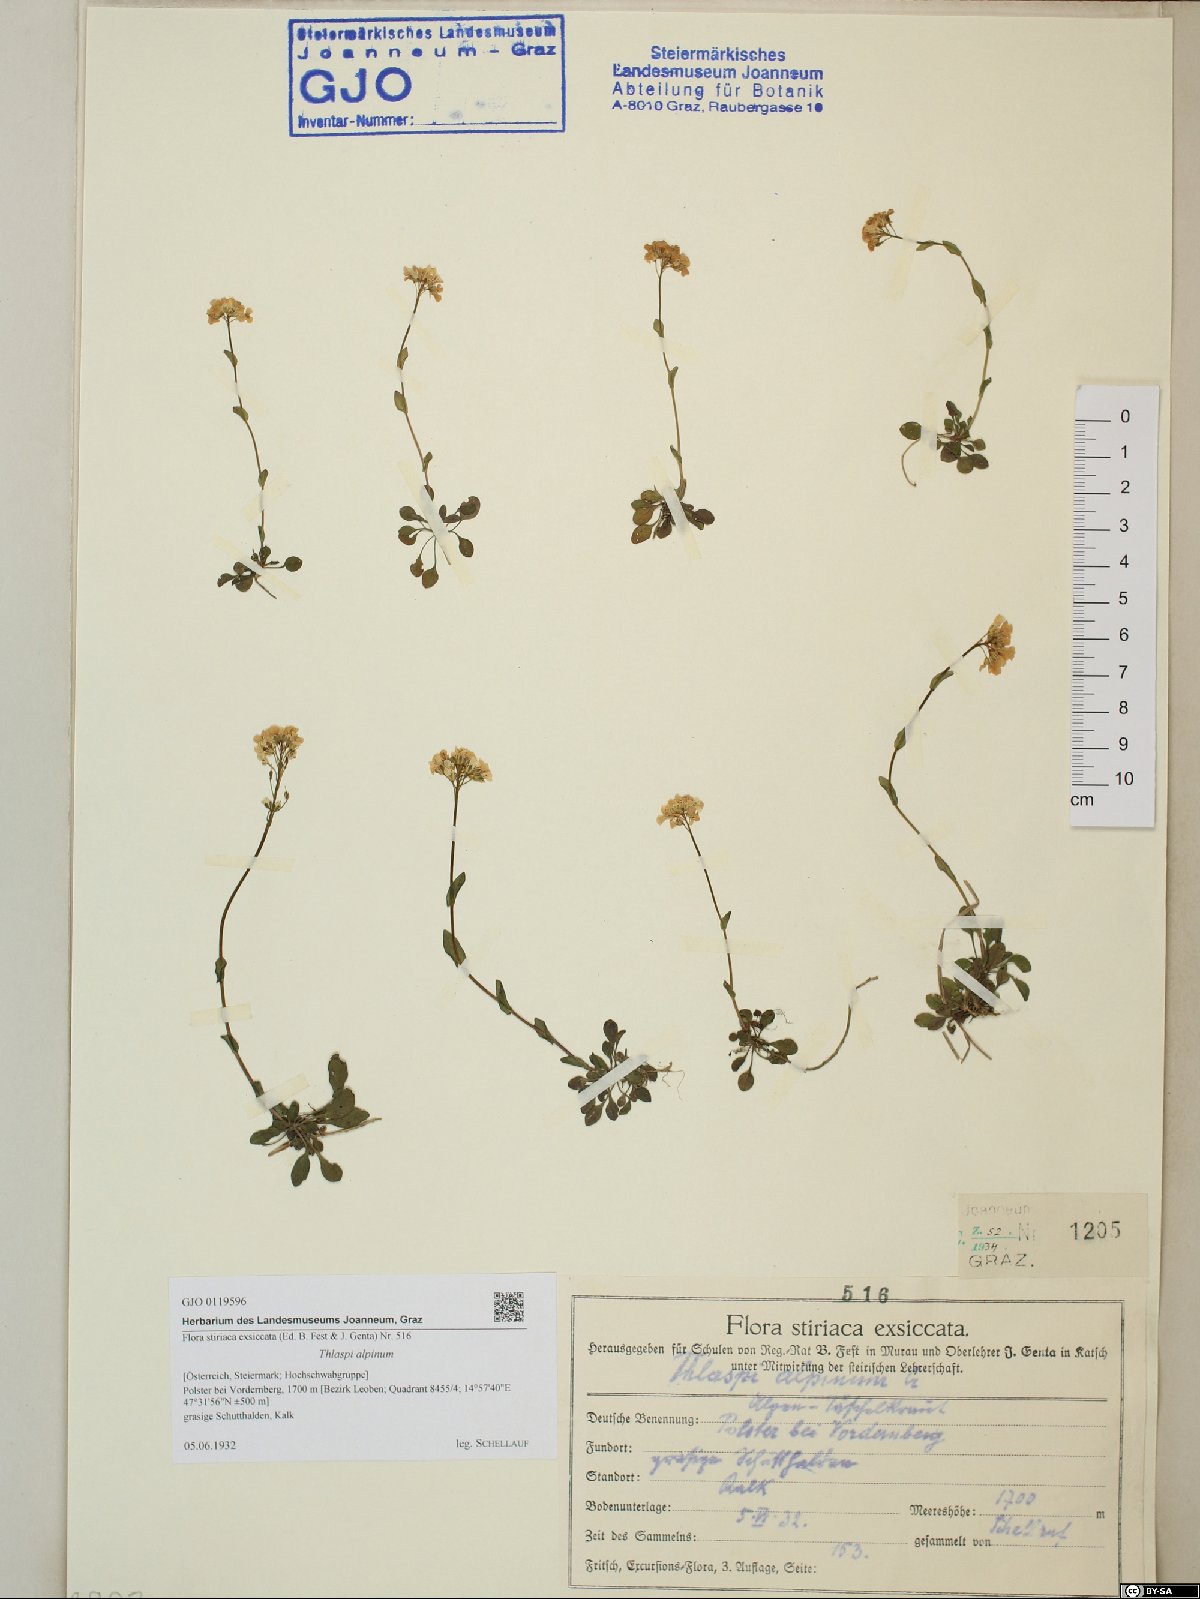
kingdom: Plantae
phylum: Tracheophyta
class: Magnoliopsida
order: Brassicales
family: Brassicaceae
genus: Noccaea
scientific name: Noccaea alpestris
